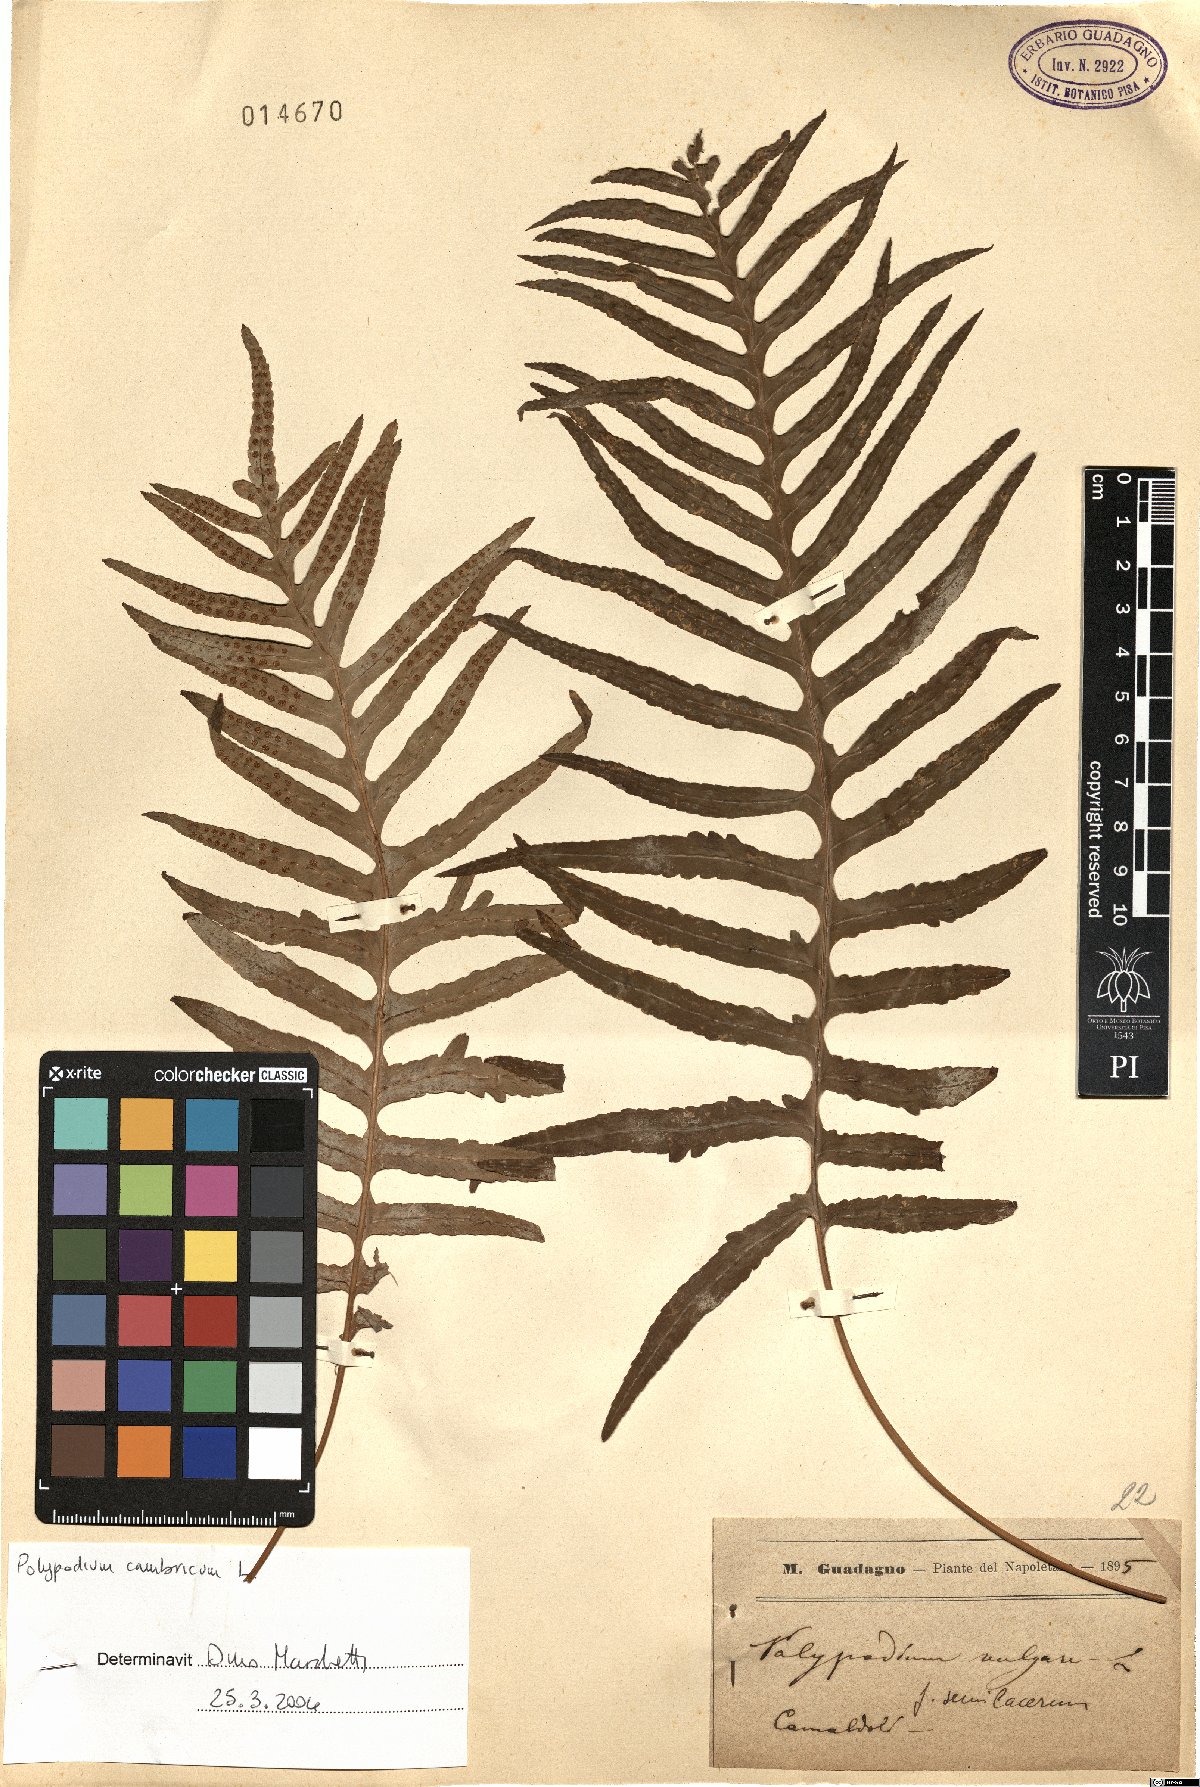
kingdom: Plantae
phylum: Tracheophyta
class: Polypodiopsida
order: Polypodiales
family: Polypodiaceae
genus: Polypodium
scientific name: Polypodium cambricum
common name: Southern polypody
